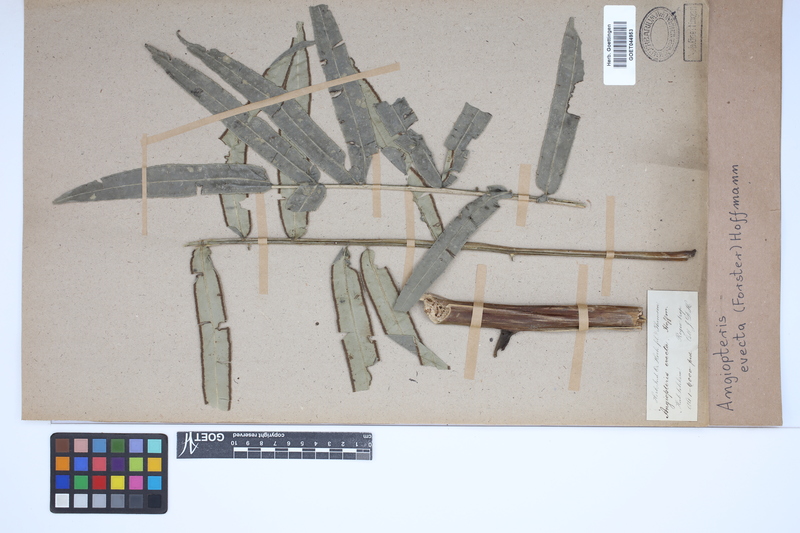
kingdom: Plantae
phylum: Tracheophyta
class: Polypodiopsida
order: Marattiales
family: Marattiaceae
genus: Angiopteris
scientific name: Angiopteris evecta
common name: Mule's-foot fern
